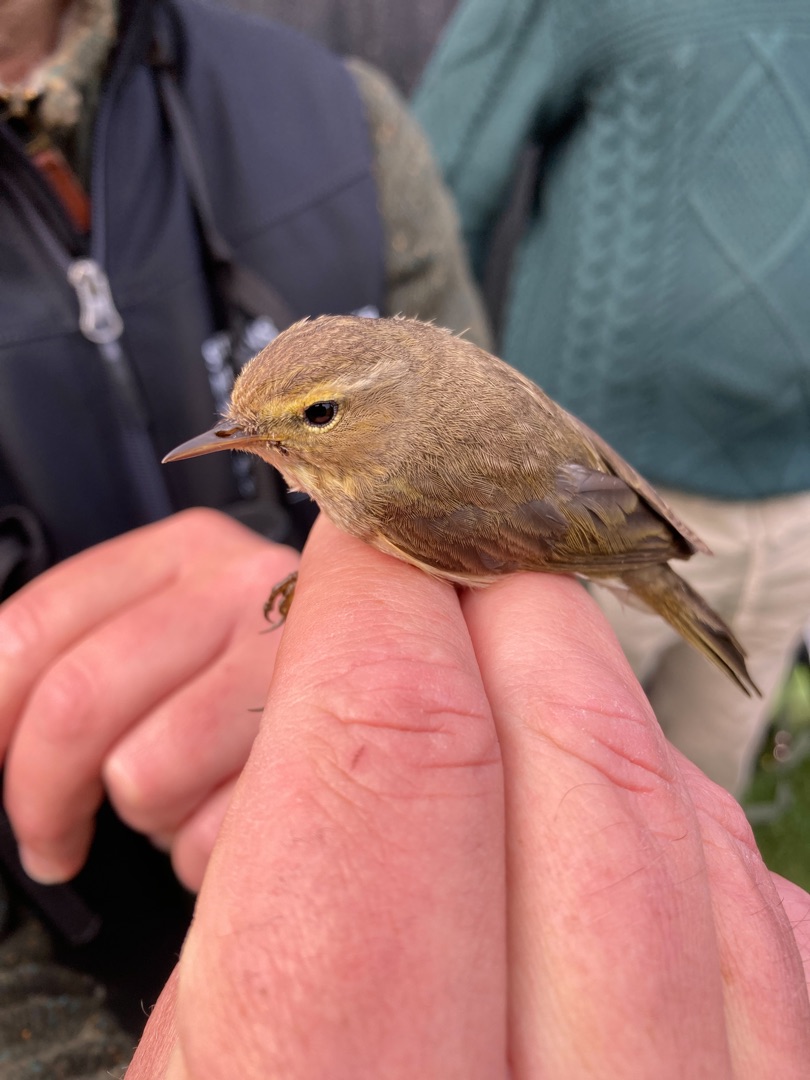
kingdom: Animalia
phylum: Chordata
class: Aves
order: Passeriformes
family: Phylloscopidae
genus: Phylloscopus
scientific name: Phylloscopus collybita
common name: Gransanger
